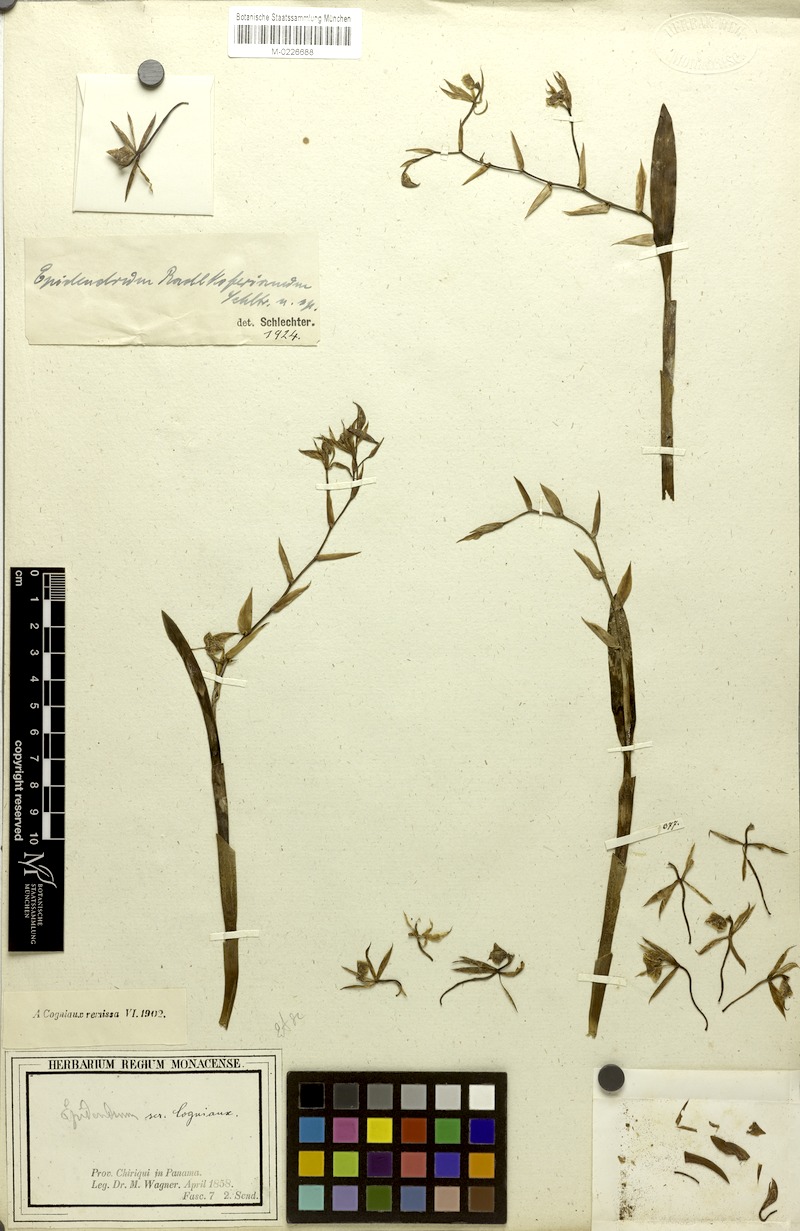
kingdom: Plantae
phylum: Tracheophyta
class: Liliopsida
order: Asparagales
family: Orchidaceae
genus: Epidendrum
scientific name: Epidendrum volutum
